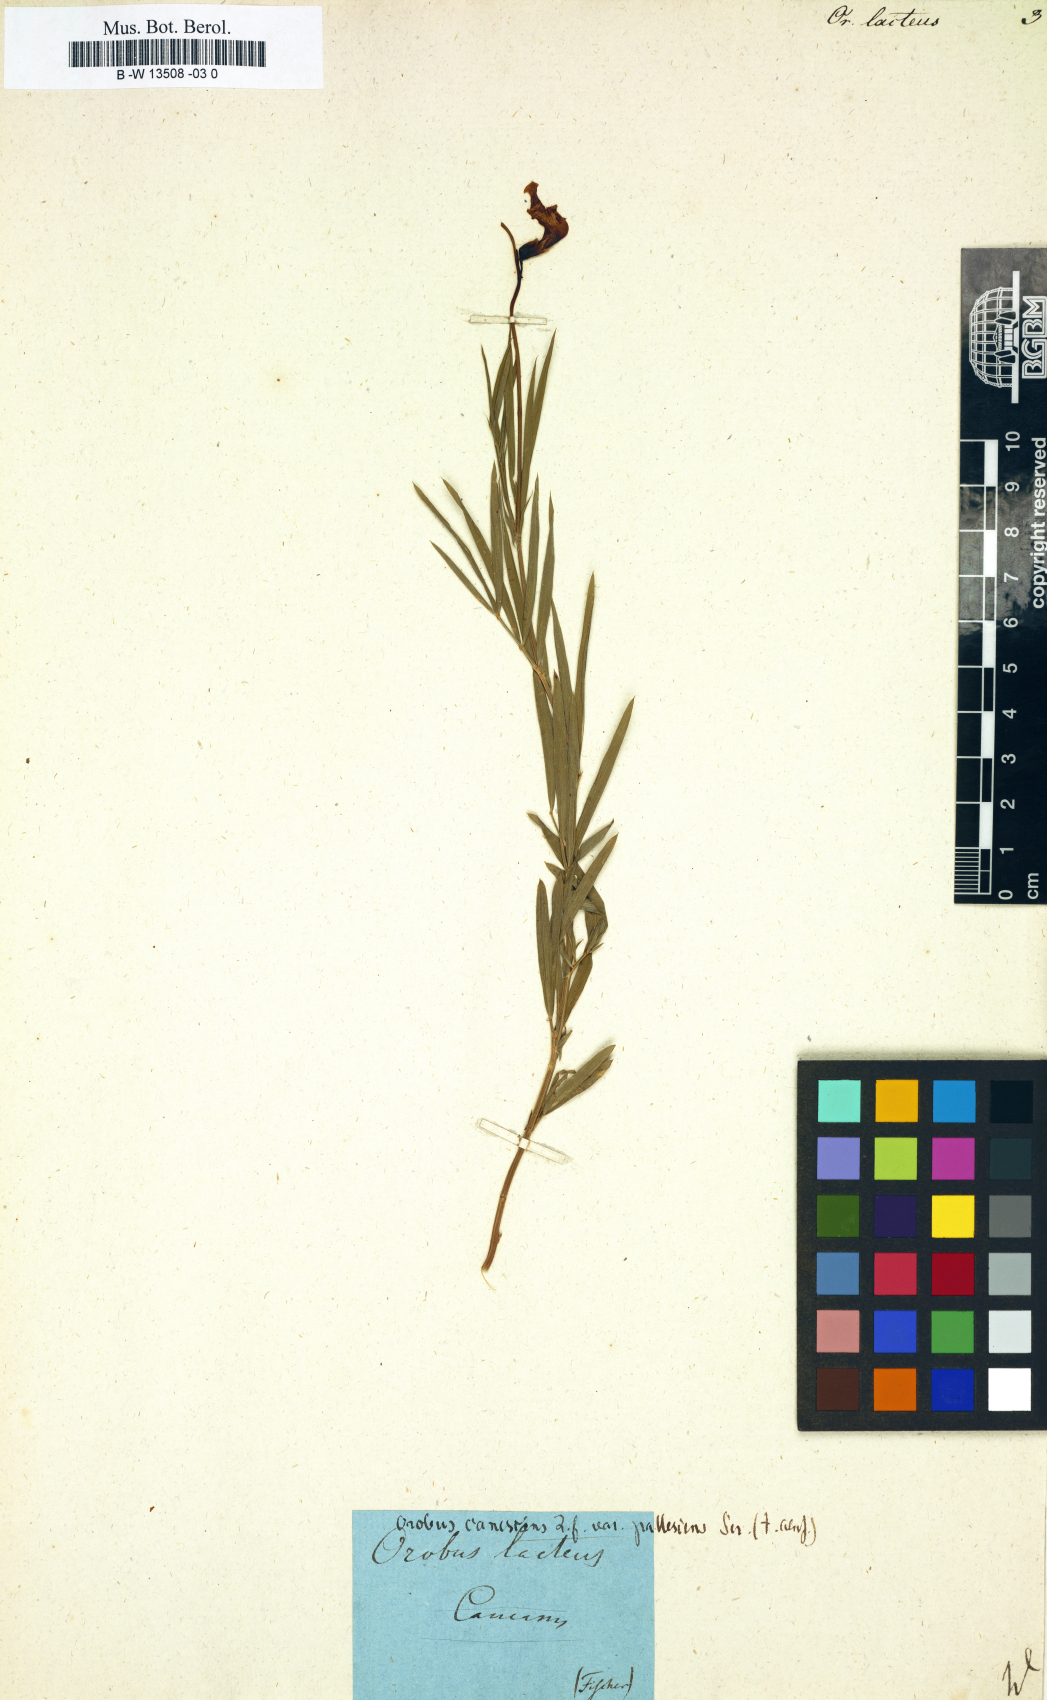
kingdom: Plantae
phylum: Tracheophyta
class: Magnoliopsida
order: Fabales
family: Fabaceae
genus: Lathyrus
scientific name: Lathyrus pannonicus
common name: Pea
